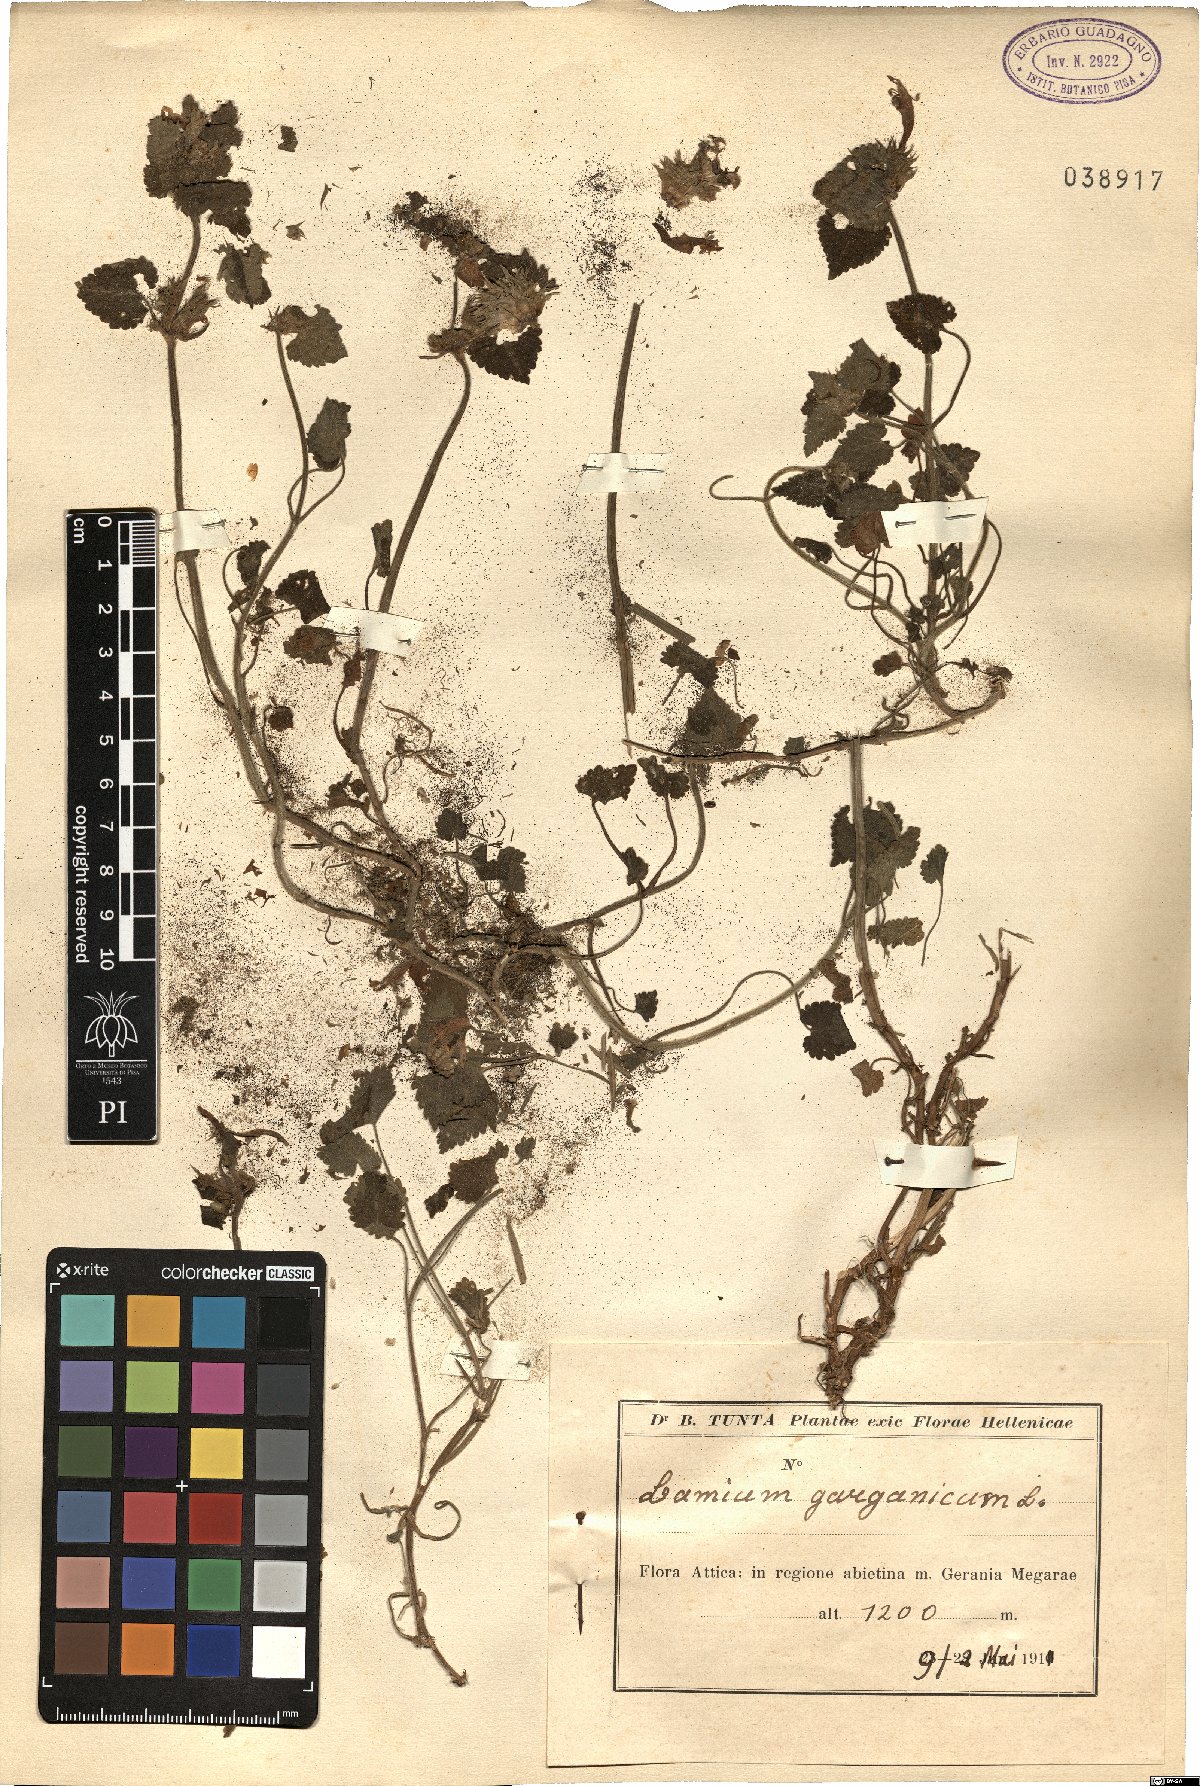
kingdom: Plantae
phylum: Tracheophyta
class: Magnoliopsida
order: Lamiales
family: Lamiaceae
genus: Lamium
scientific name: Lamium garganicum
